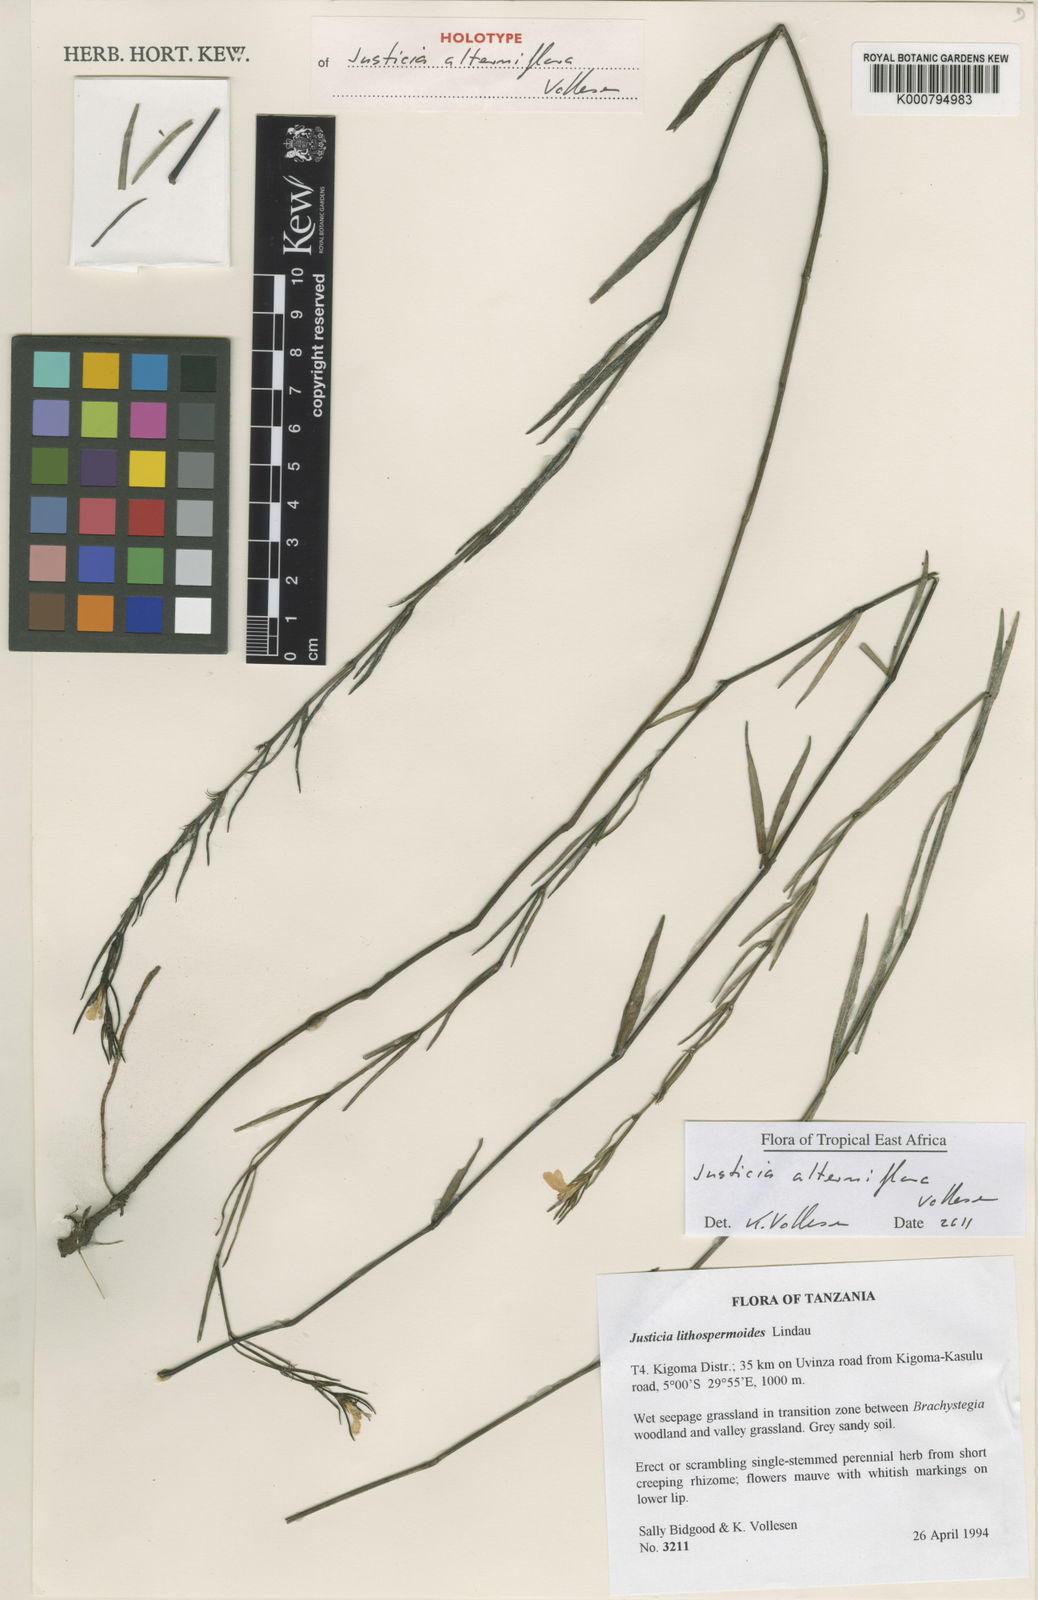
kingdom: Plantae
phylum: Tracheophyta
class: Magnoliopsida
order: Lamiales
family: Acanthaceae
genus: Justicia
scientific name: Justicia alterniflora
